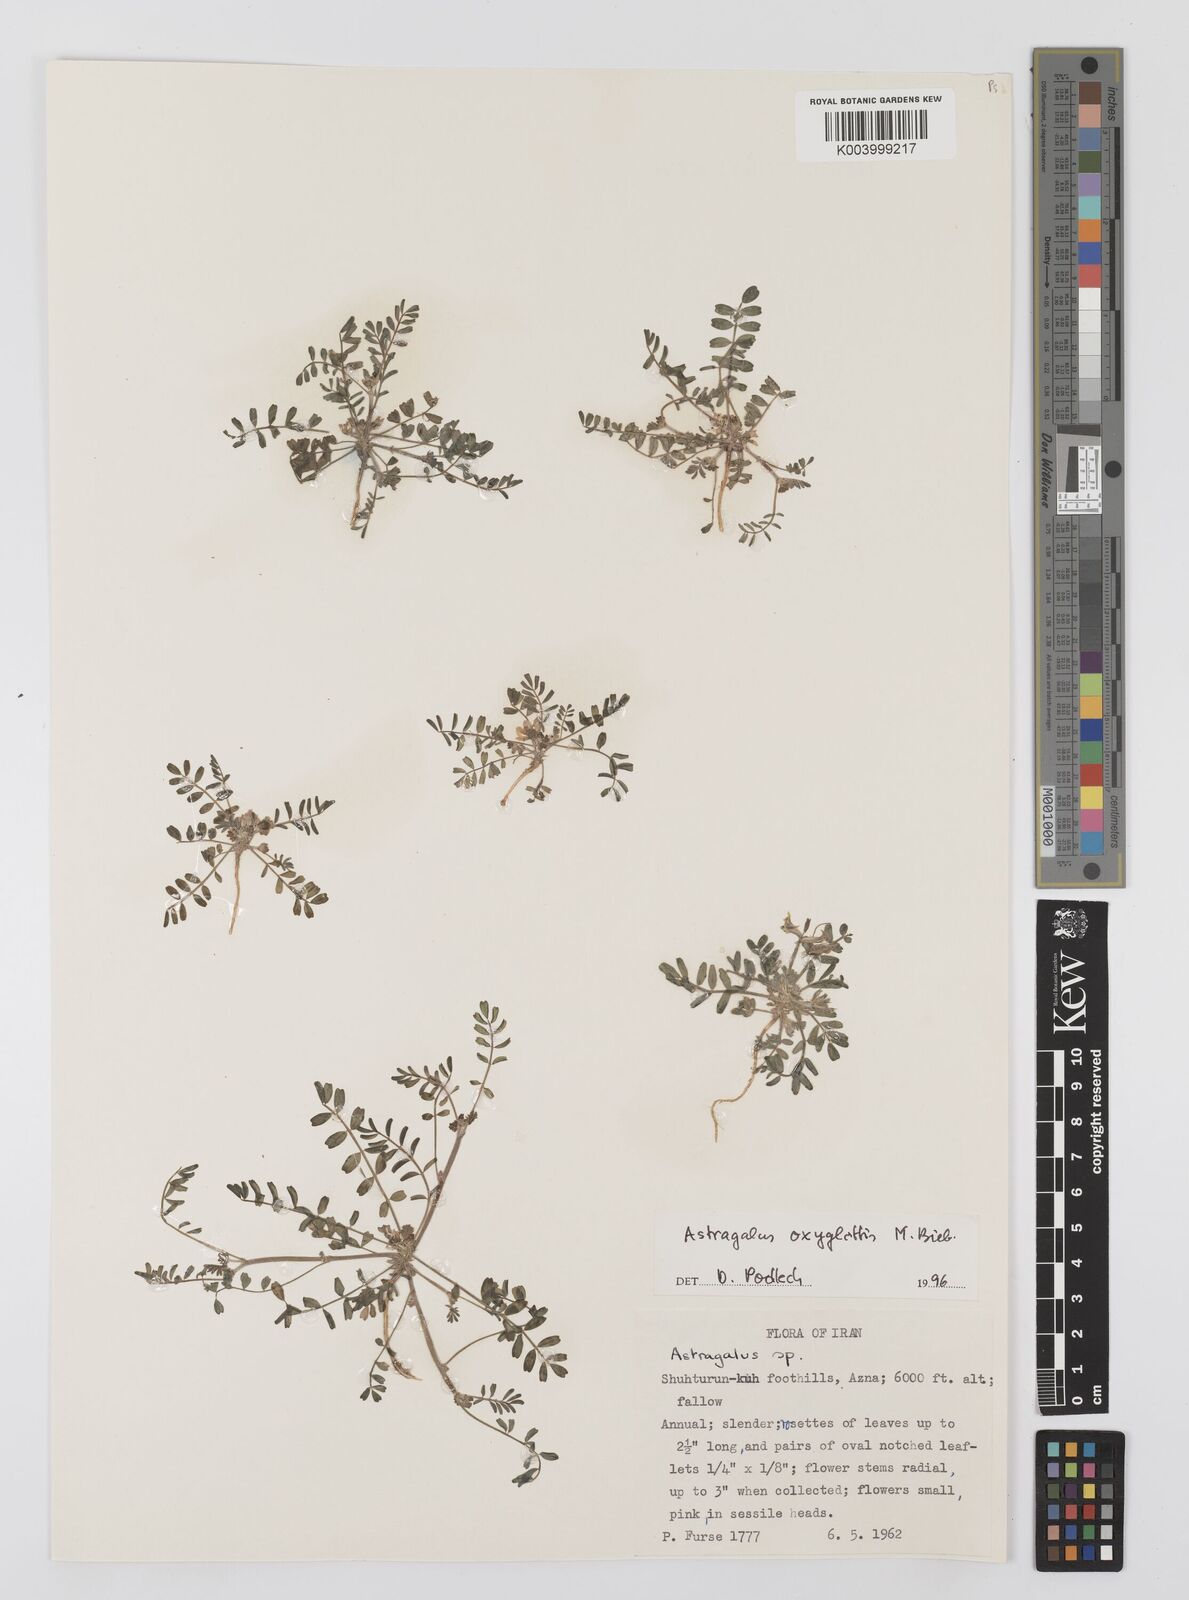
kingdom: Plantae
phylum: Tracheophyta
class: Magnoliopsida
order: Fabales
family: Fabaceae
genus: Astragalus
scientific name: Astragalus oxyglottis
